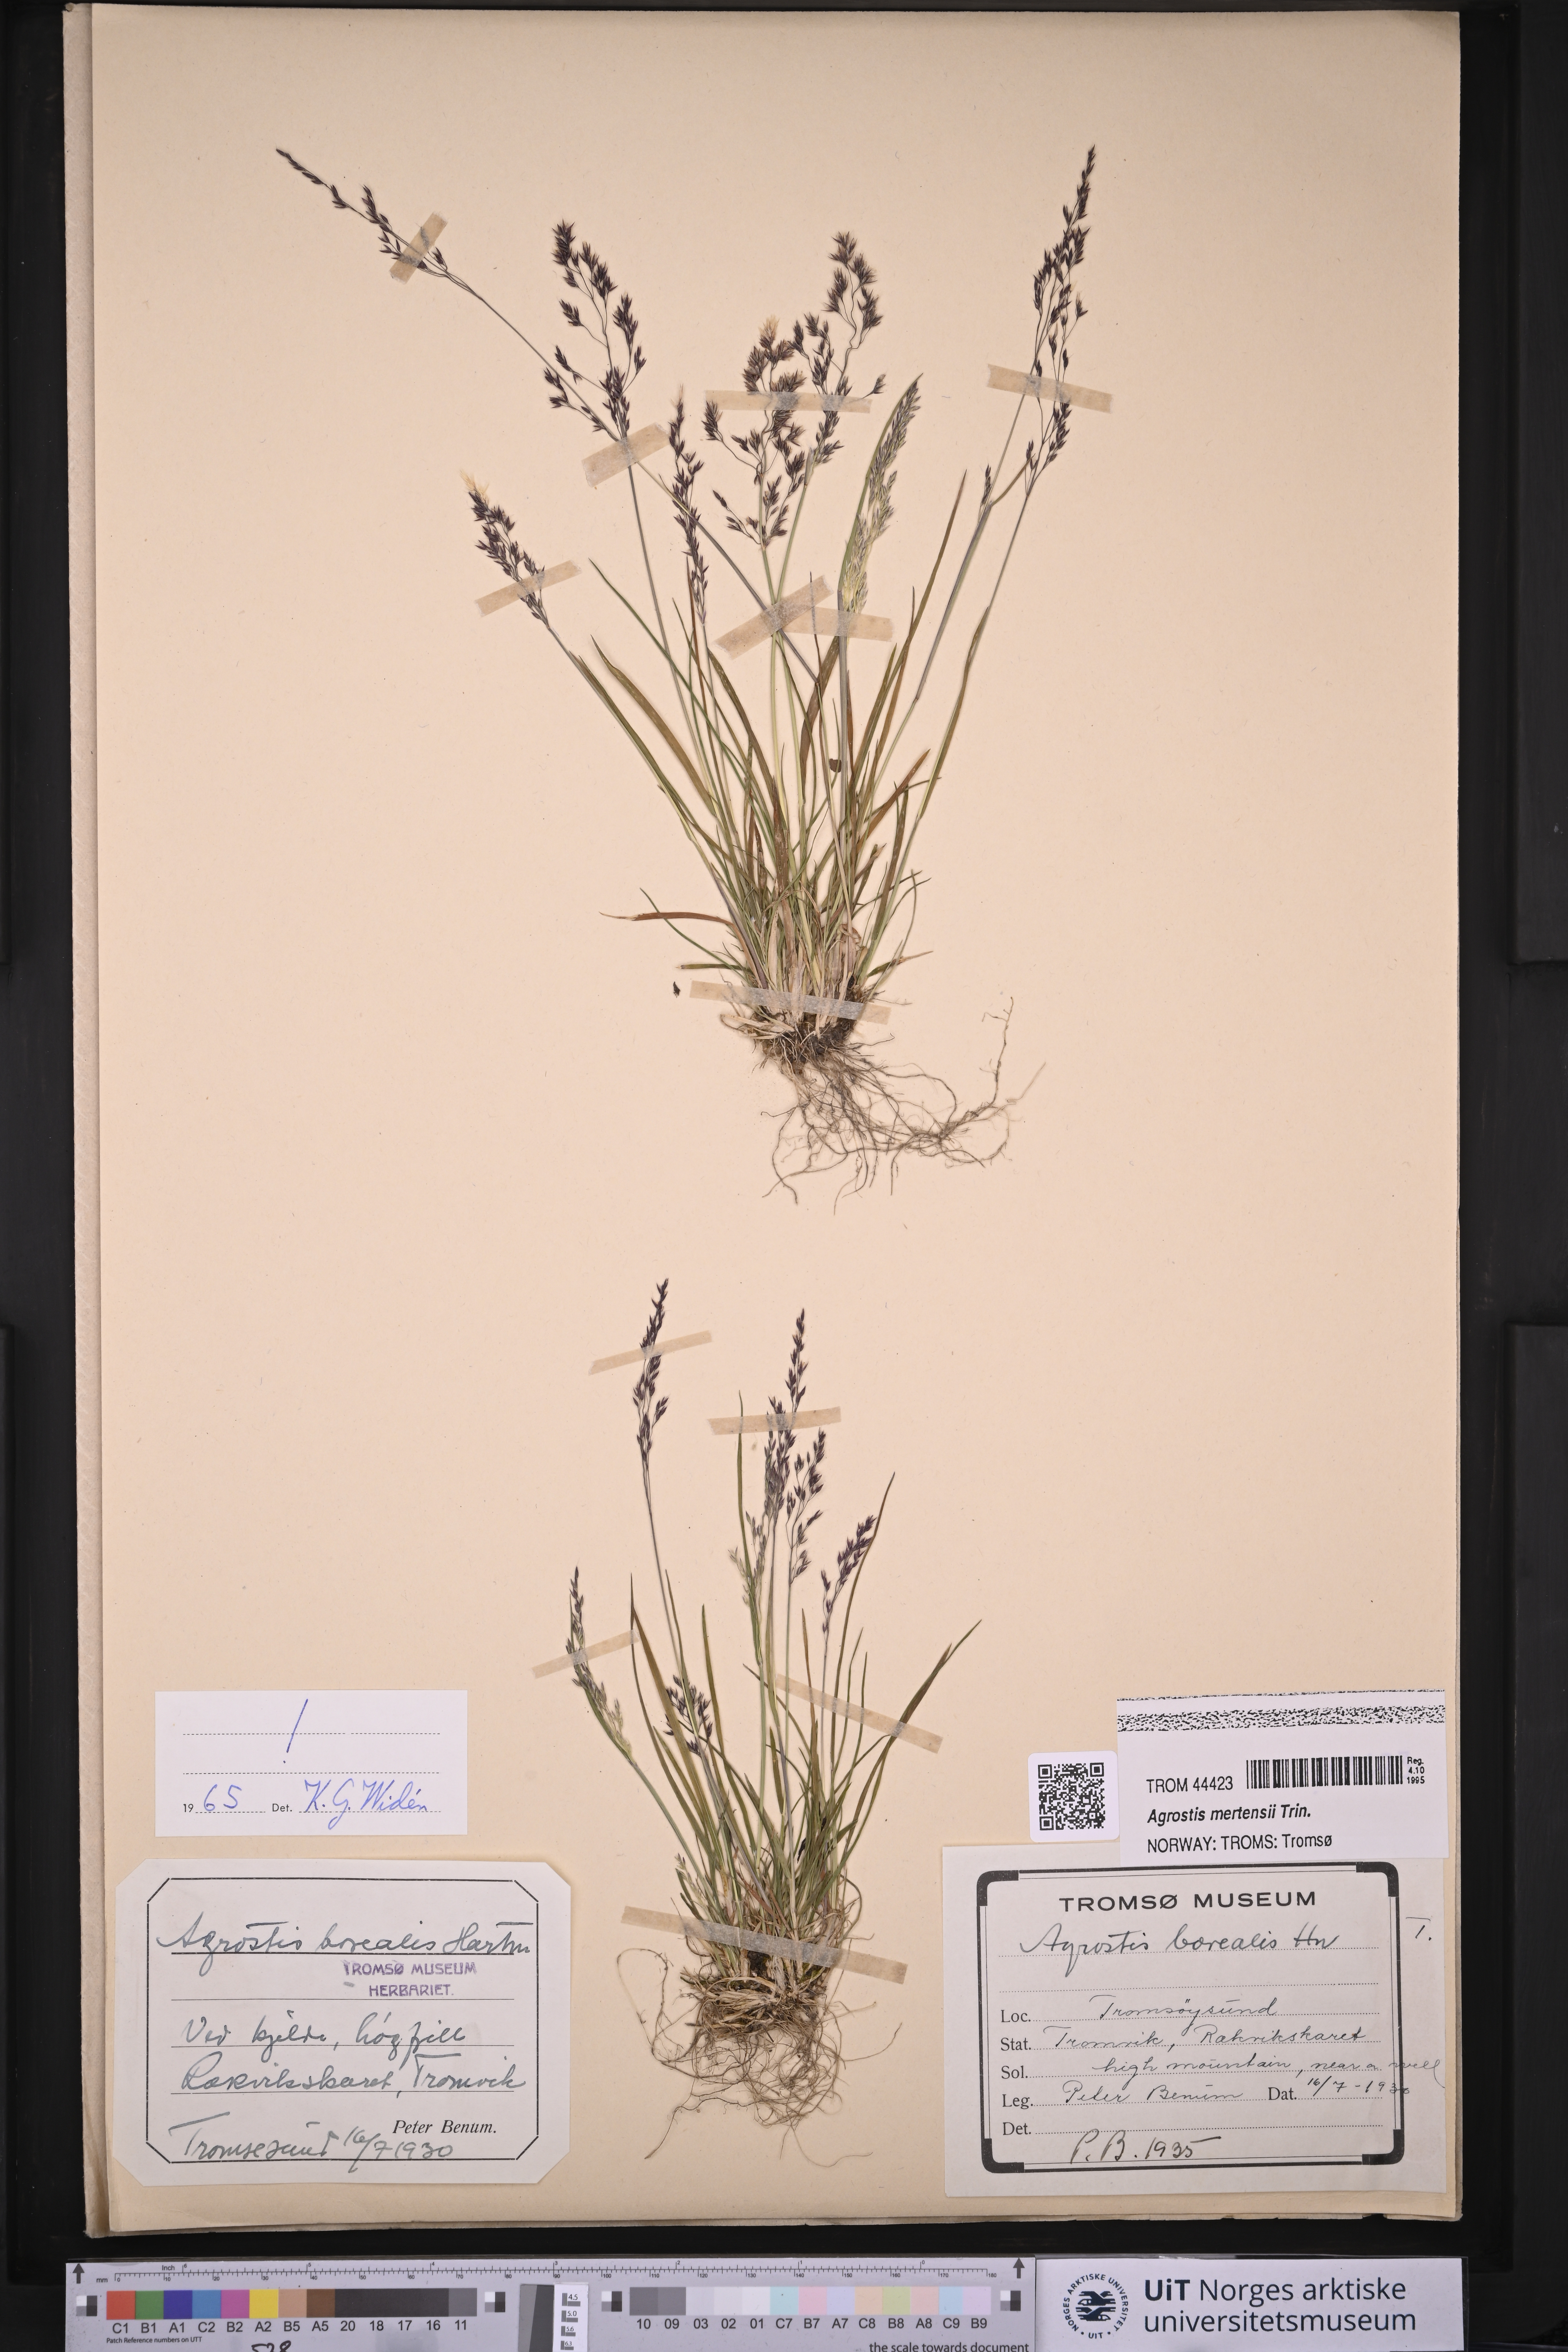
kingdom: Plantae
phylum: Tracheophyta
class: Liliopsida
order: Poales
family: Poaceae
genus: Agrostis
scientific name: Agrostis mertensii
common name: Northern bent
